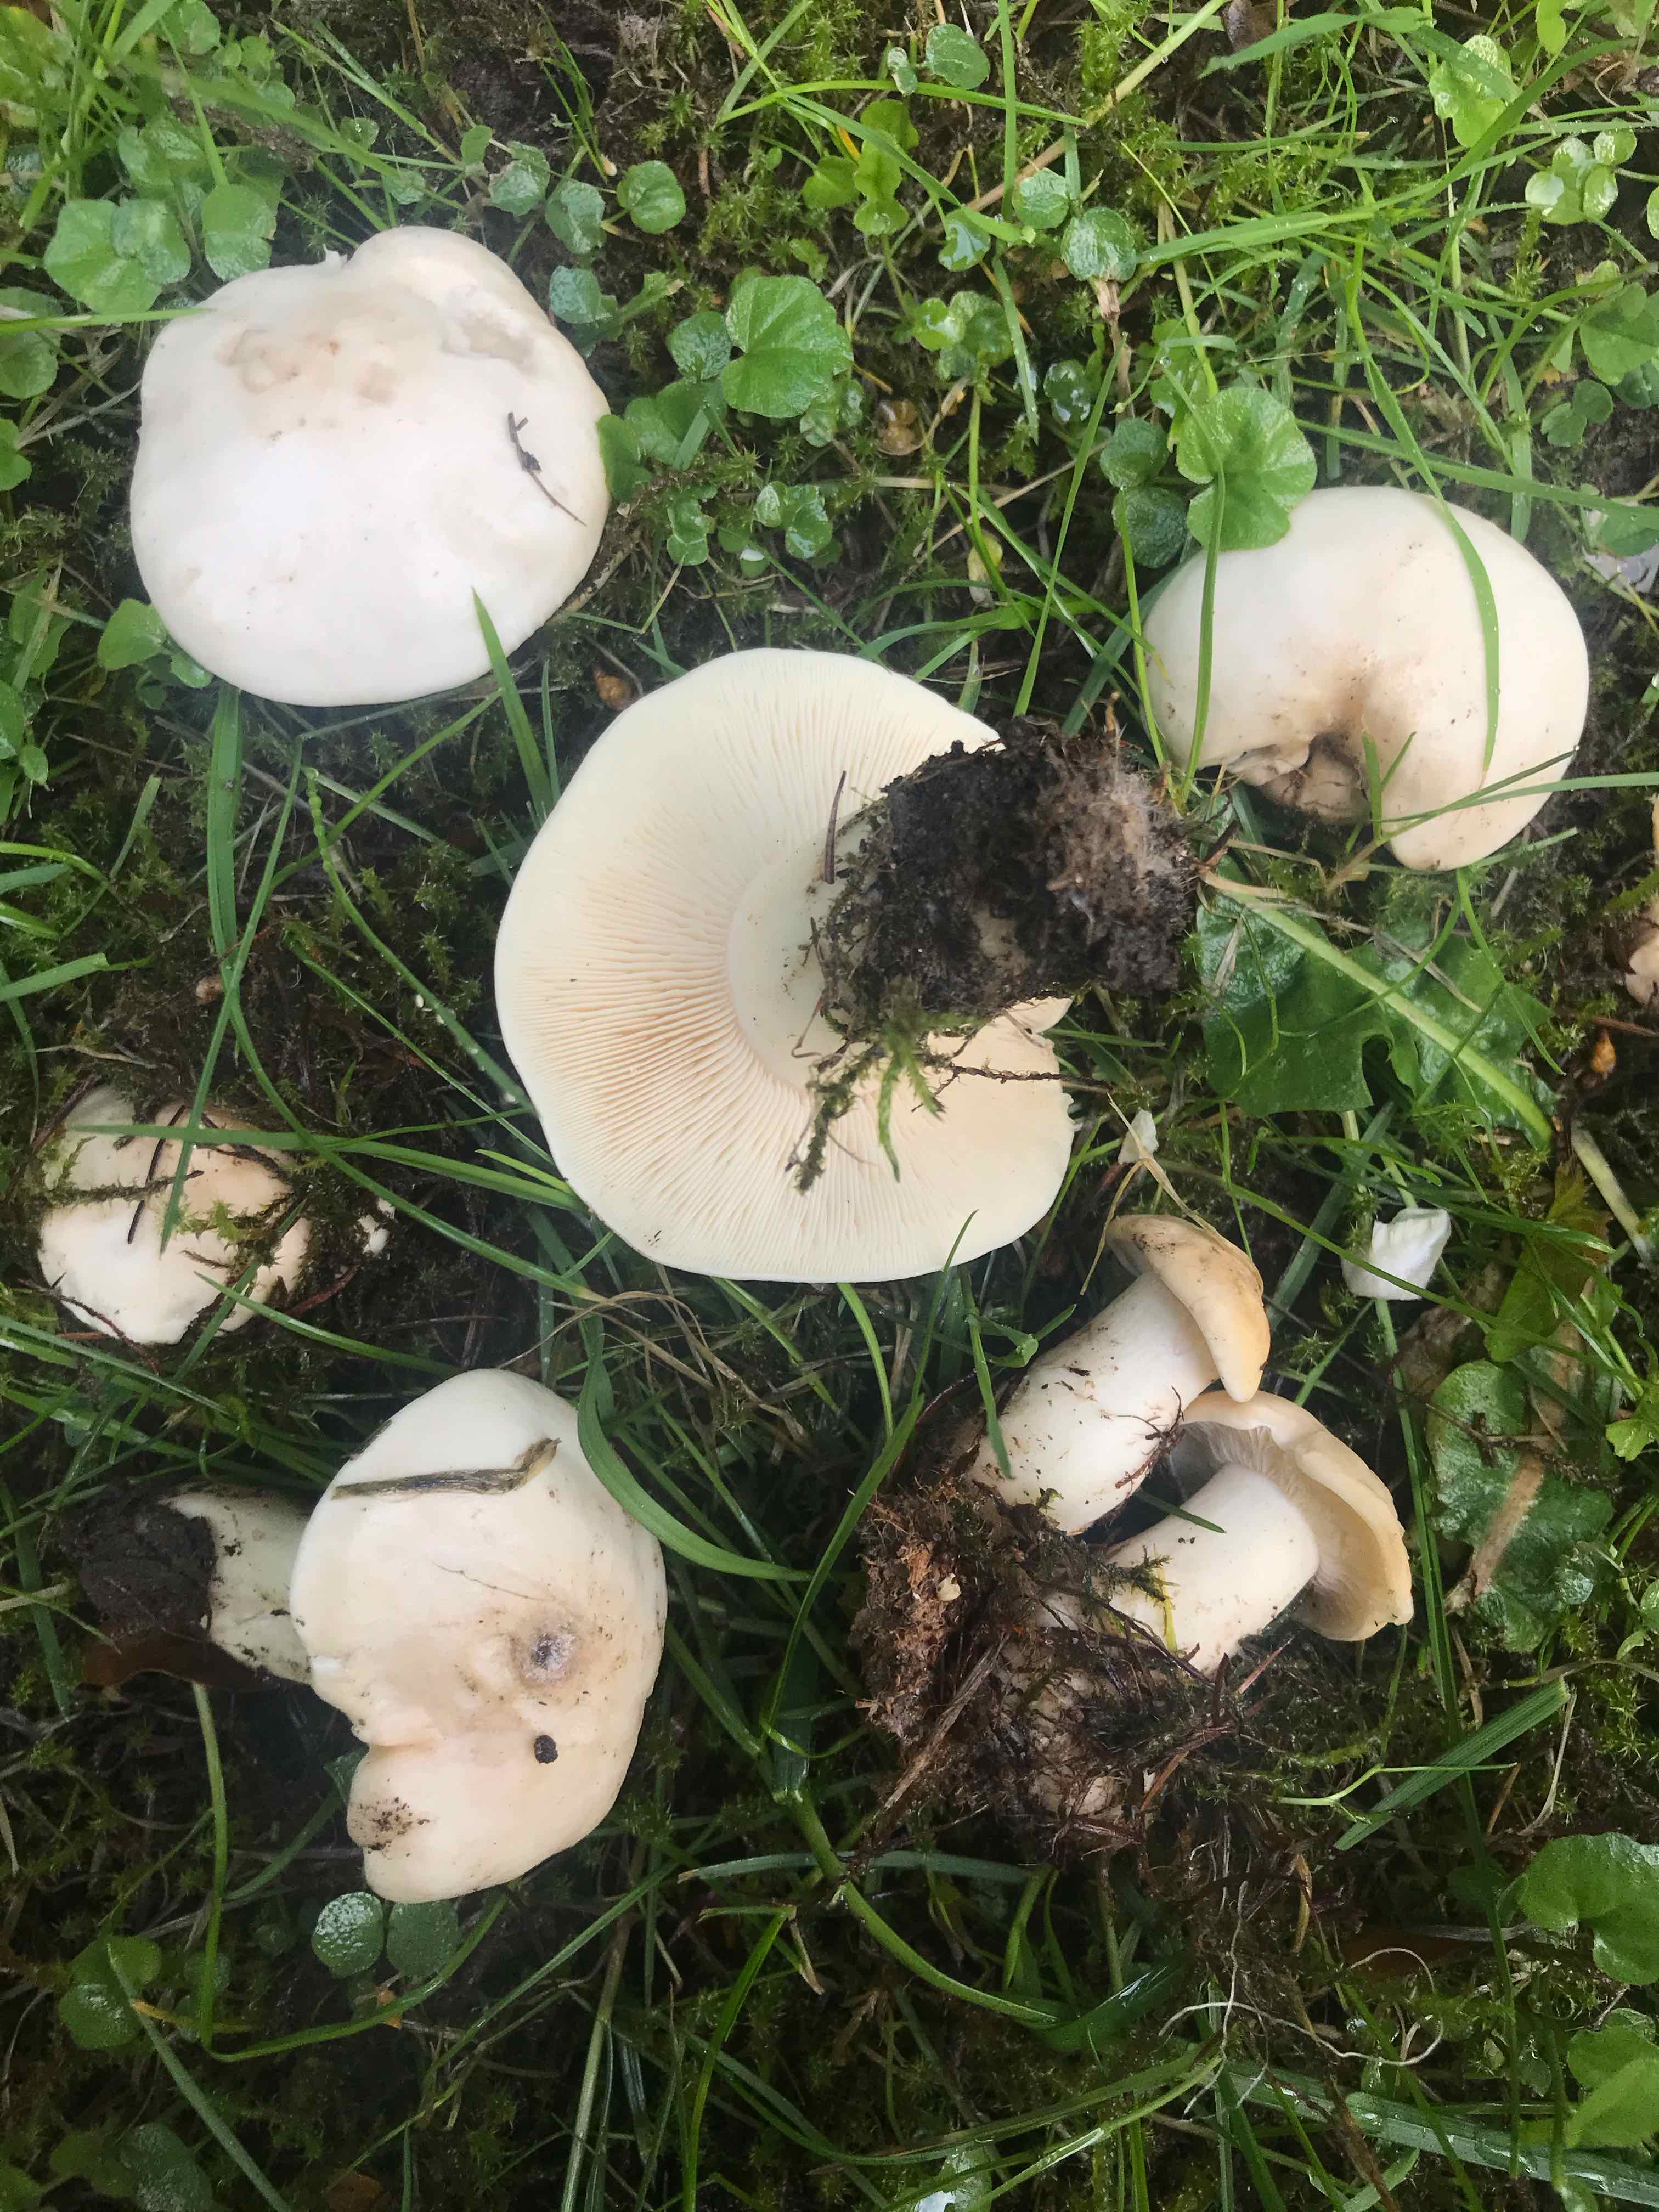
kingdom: Fungi
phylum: Basidiomycota
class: Agaricomycetes
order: Agaricales
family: Lyophyllaceae
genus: Calocybe
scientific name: Calocybe gambosa
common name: vårmusseron
